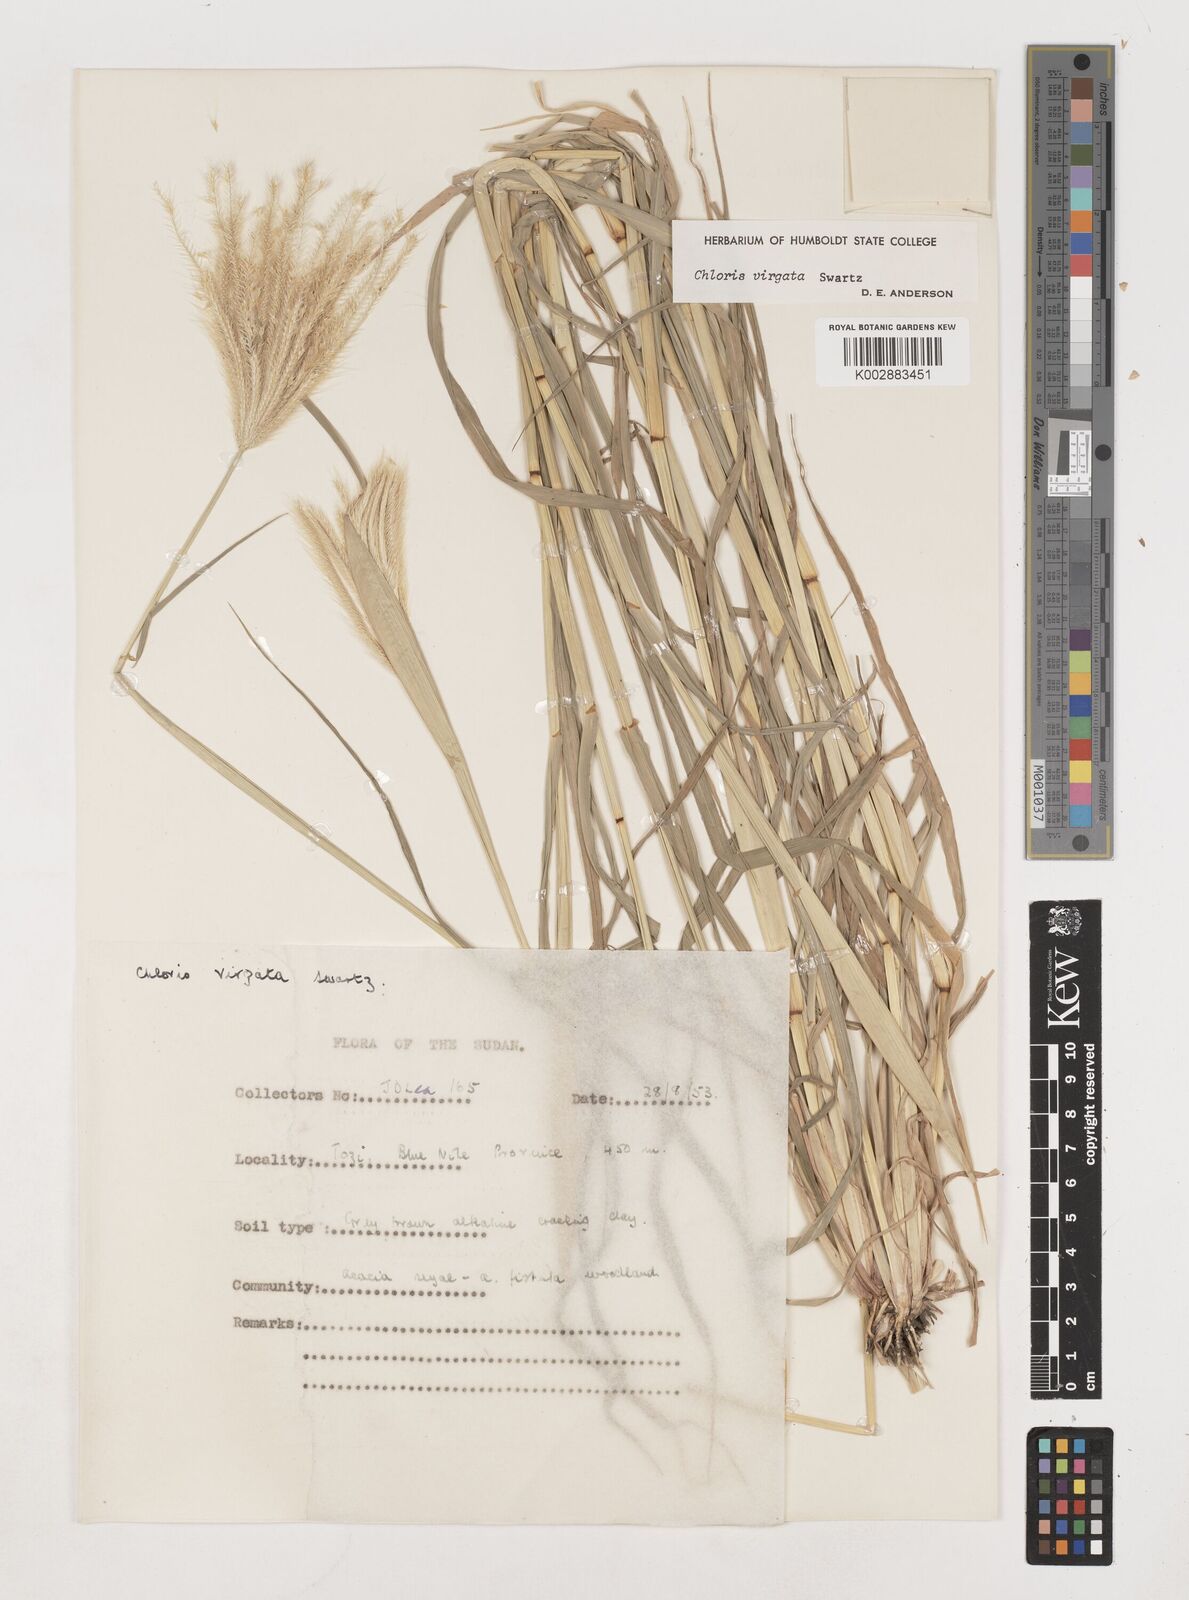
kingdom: Plantae
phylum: Tracheophyta
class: Liliopsida
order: Poales
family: Poaceae
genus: Chloris
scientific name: Chloris virgata
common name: Feathery rhodes-grass
